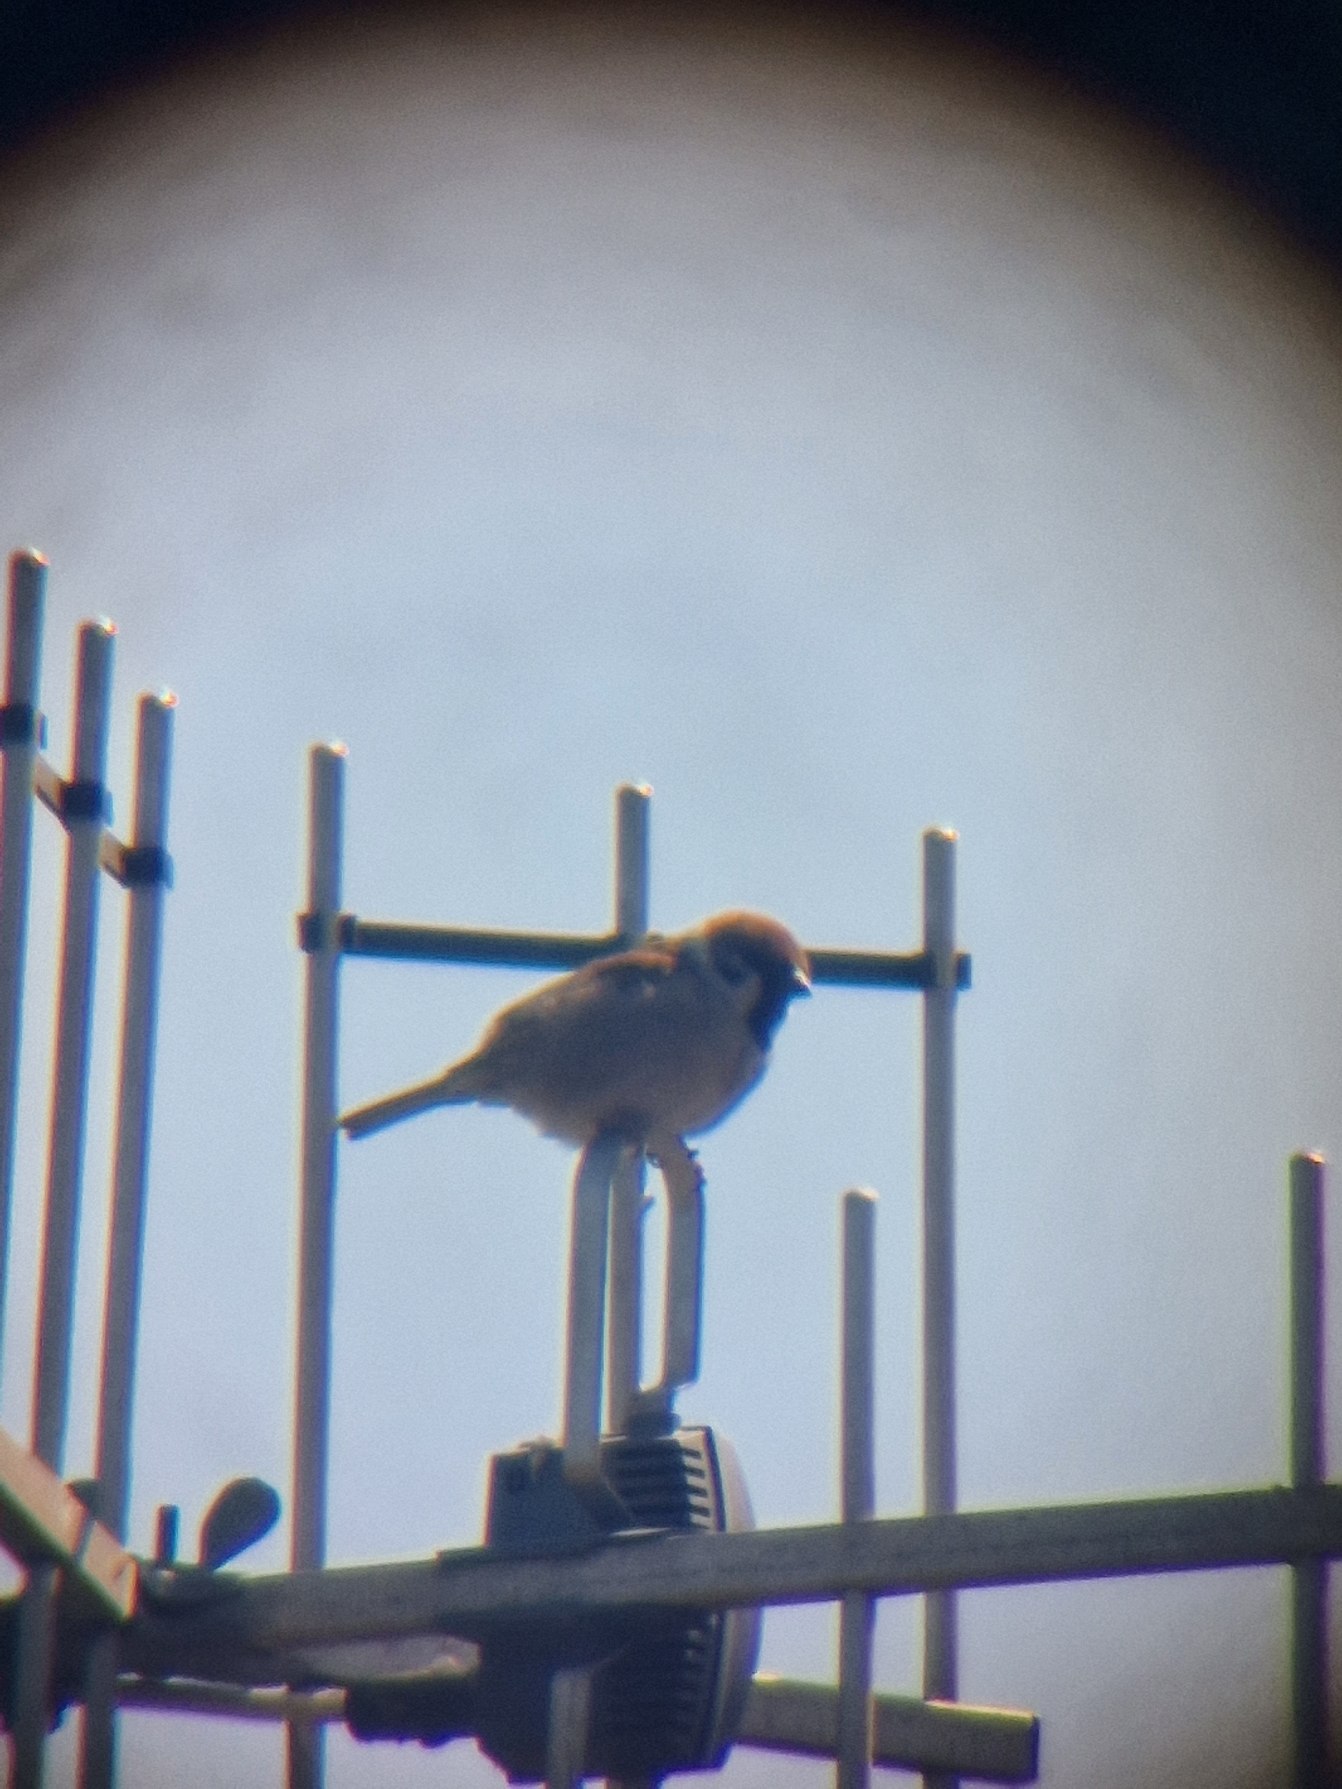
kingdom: Animalia
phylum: Chordata
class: Aves
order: Passeriformes
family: Passeridae
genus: Passer
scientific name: Passer montanus
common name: Skovspurv
